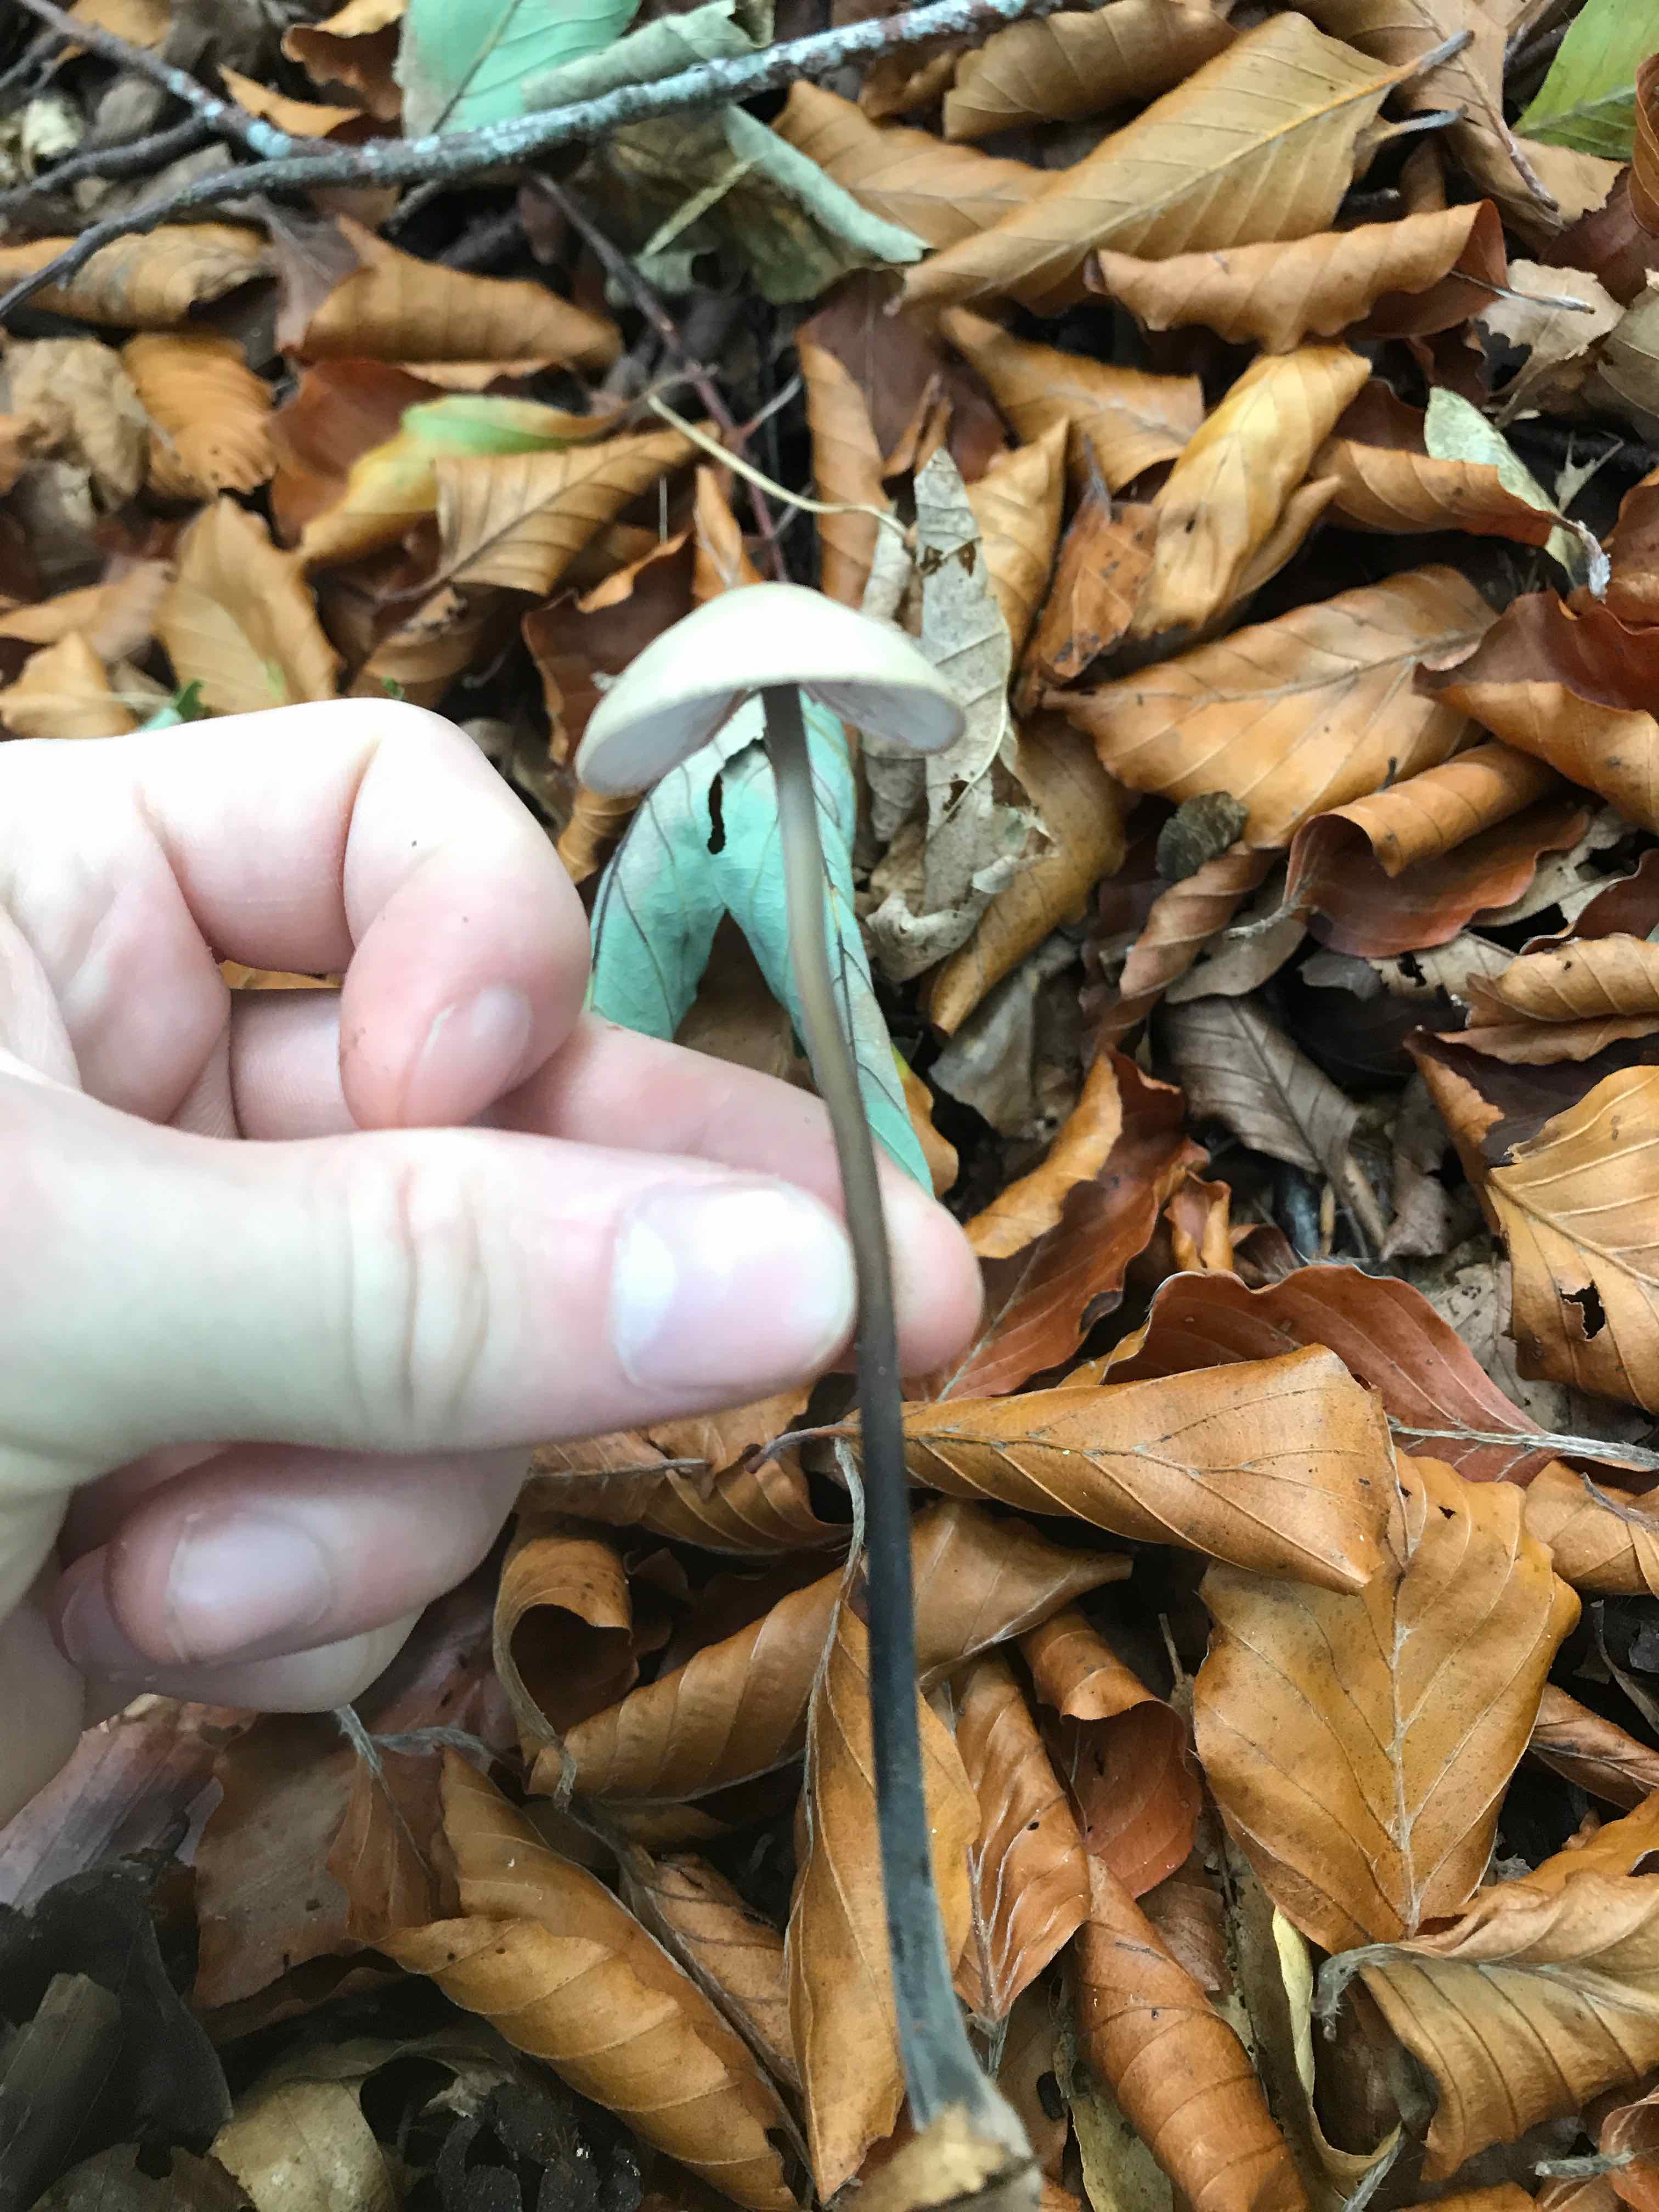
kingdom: Fungi
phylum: Basidiomycota
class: Agaricomycetes
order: Agaricales
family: Omphalotaceae
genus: Mycetinis
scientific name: Mycetinis alliaceus
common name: stor løghat
